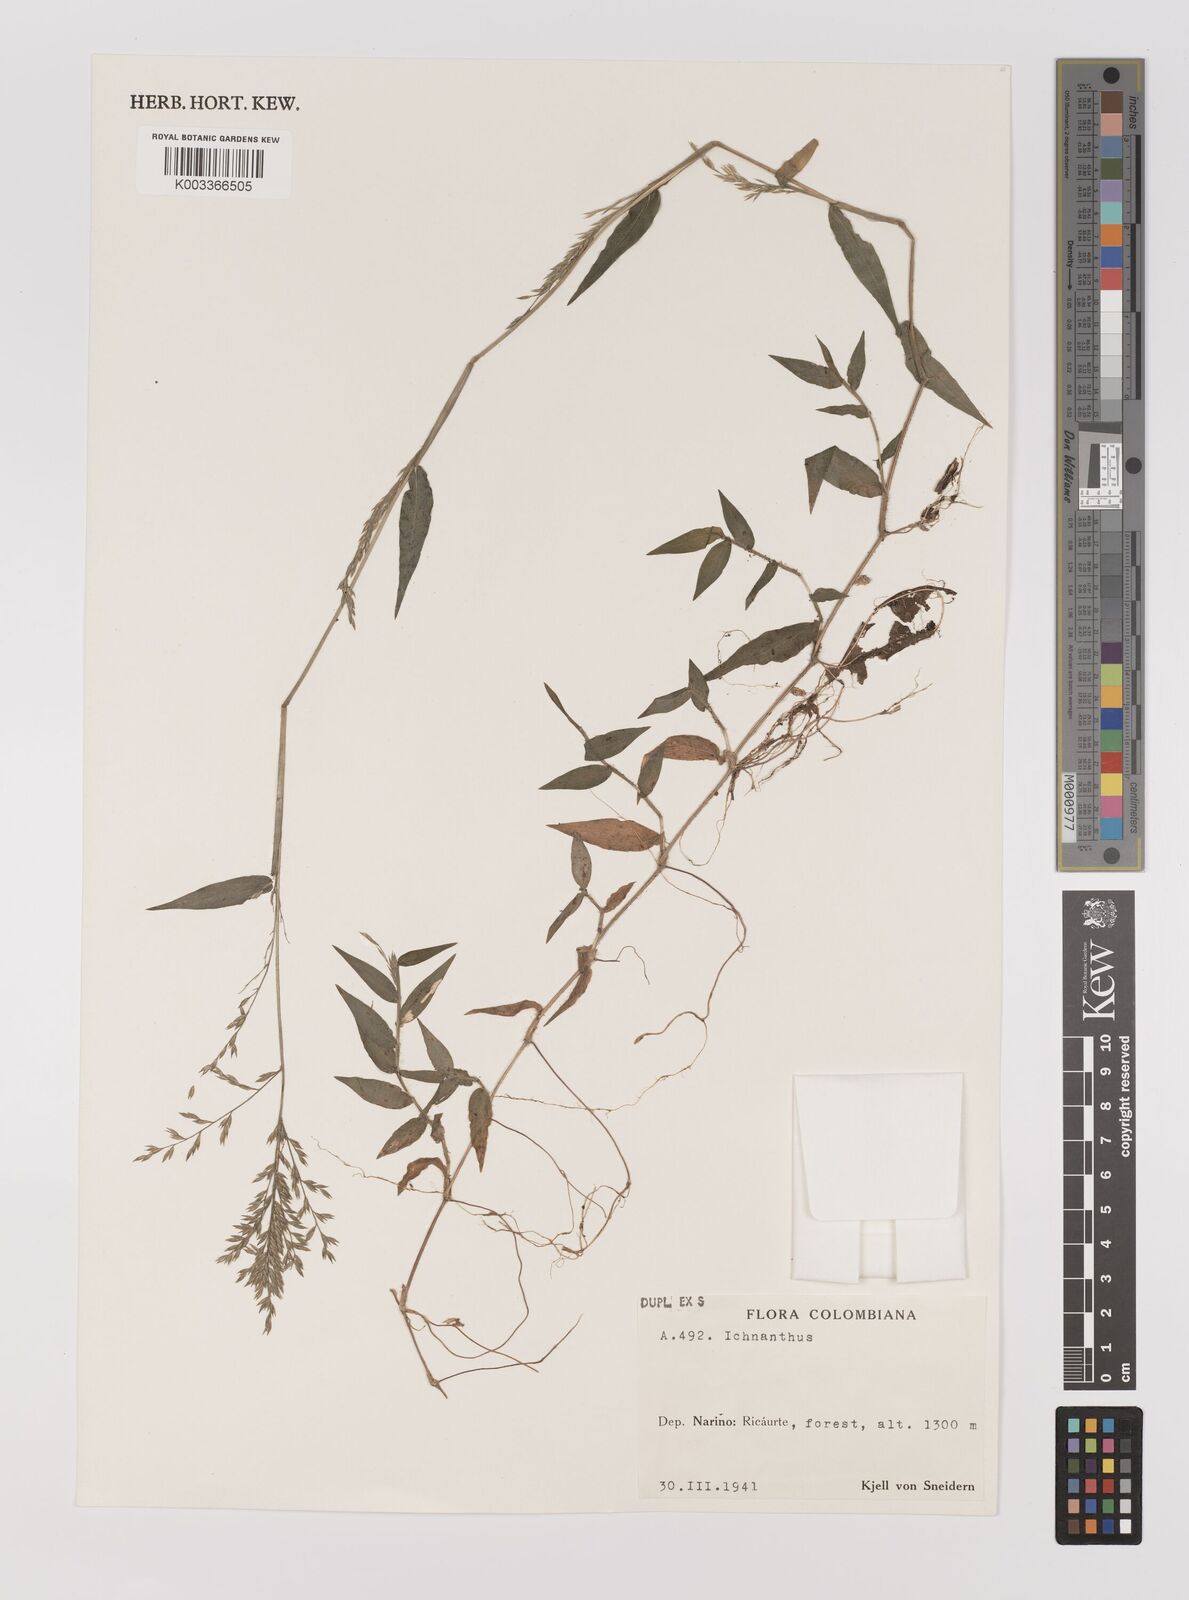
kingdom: Plantae
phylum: Tracheophyta
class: Liliopsida
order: Poales
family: Poaceae
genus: Ichnanthus
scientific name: Ichnanthus
